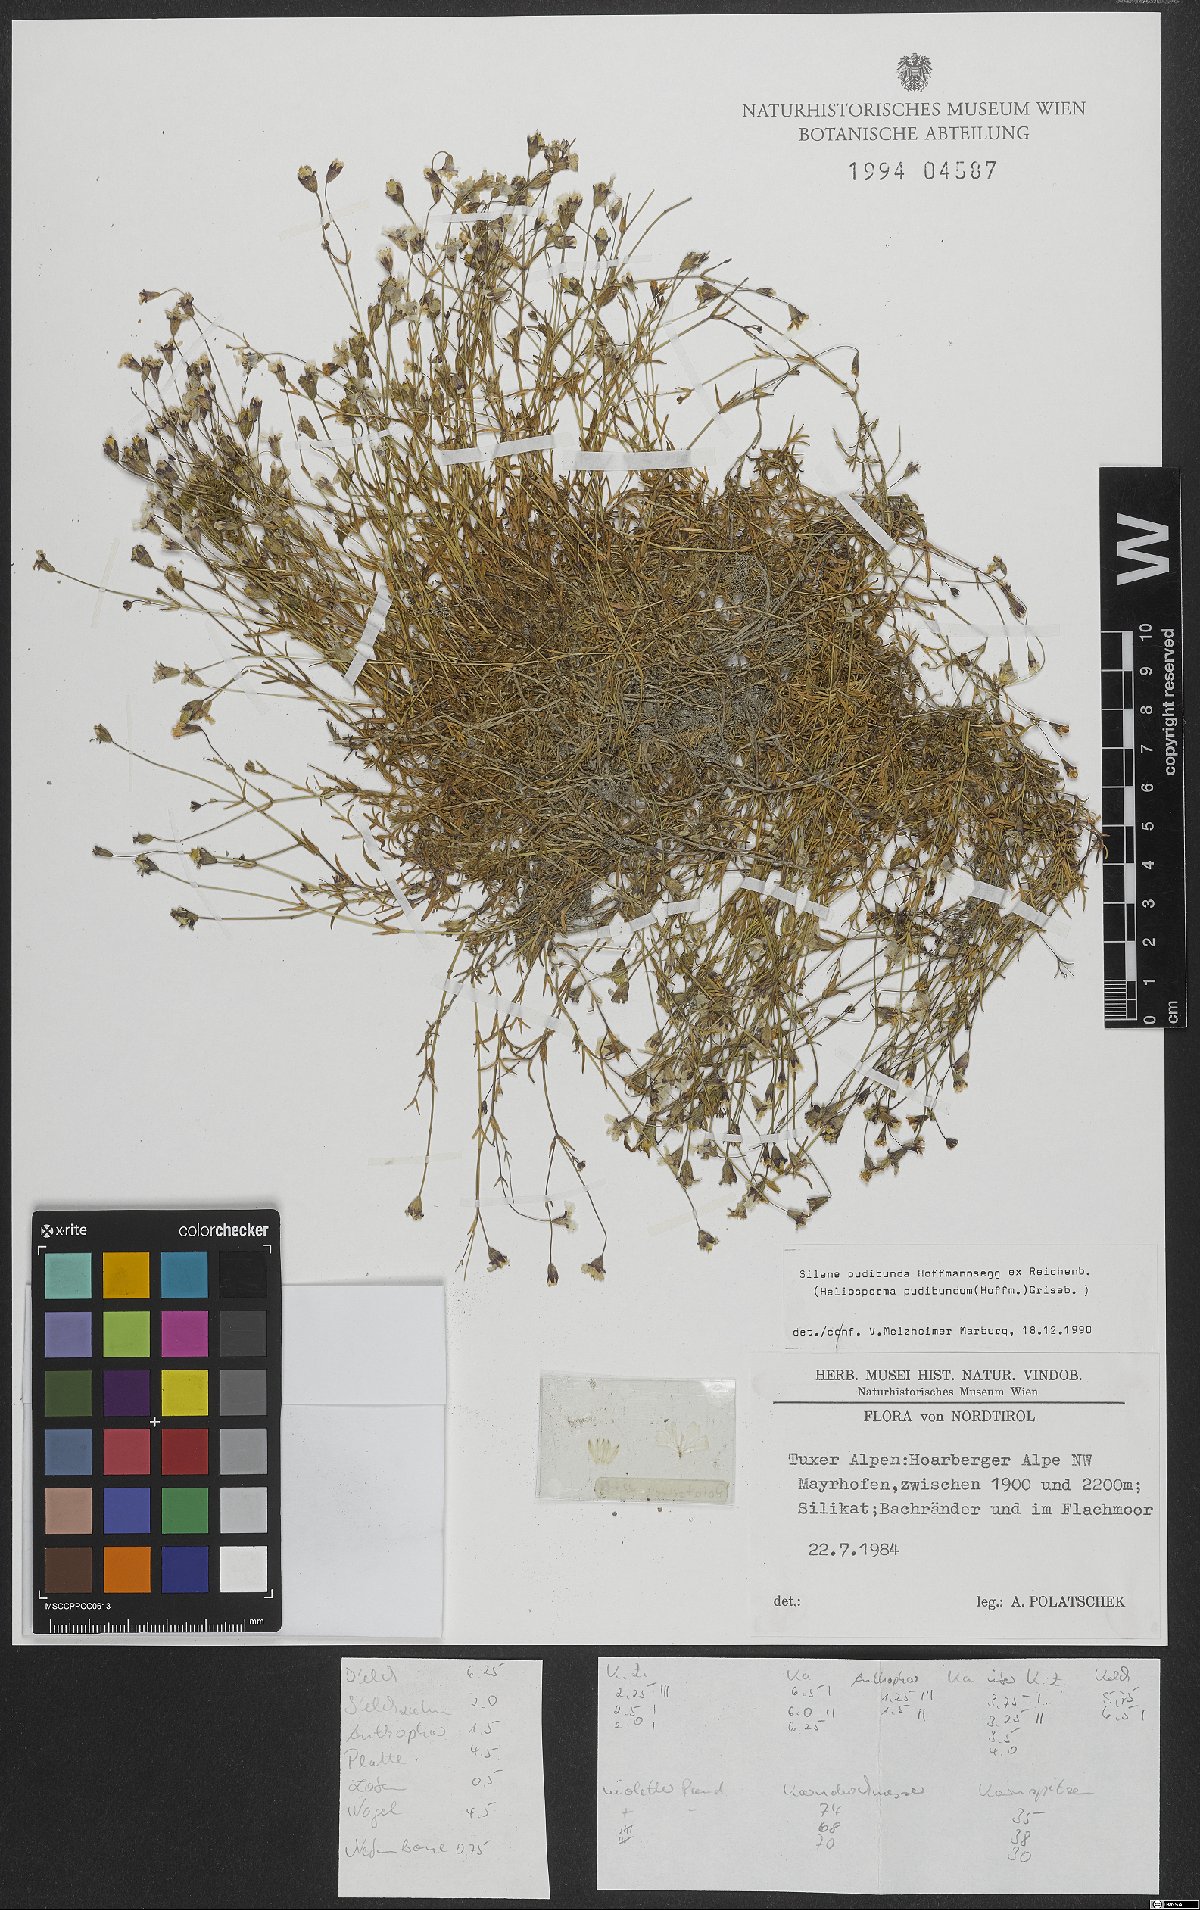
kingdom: Plantae
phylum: Tracheophyta
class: Magnoliopsida
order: Caryophyllales
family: Caryophyllaceae
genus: Heliosperma
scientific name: Heliosperma pudibundum
